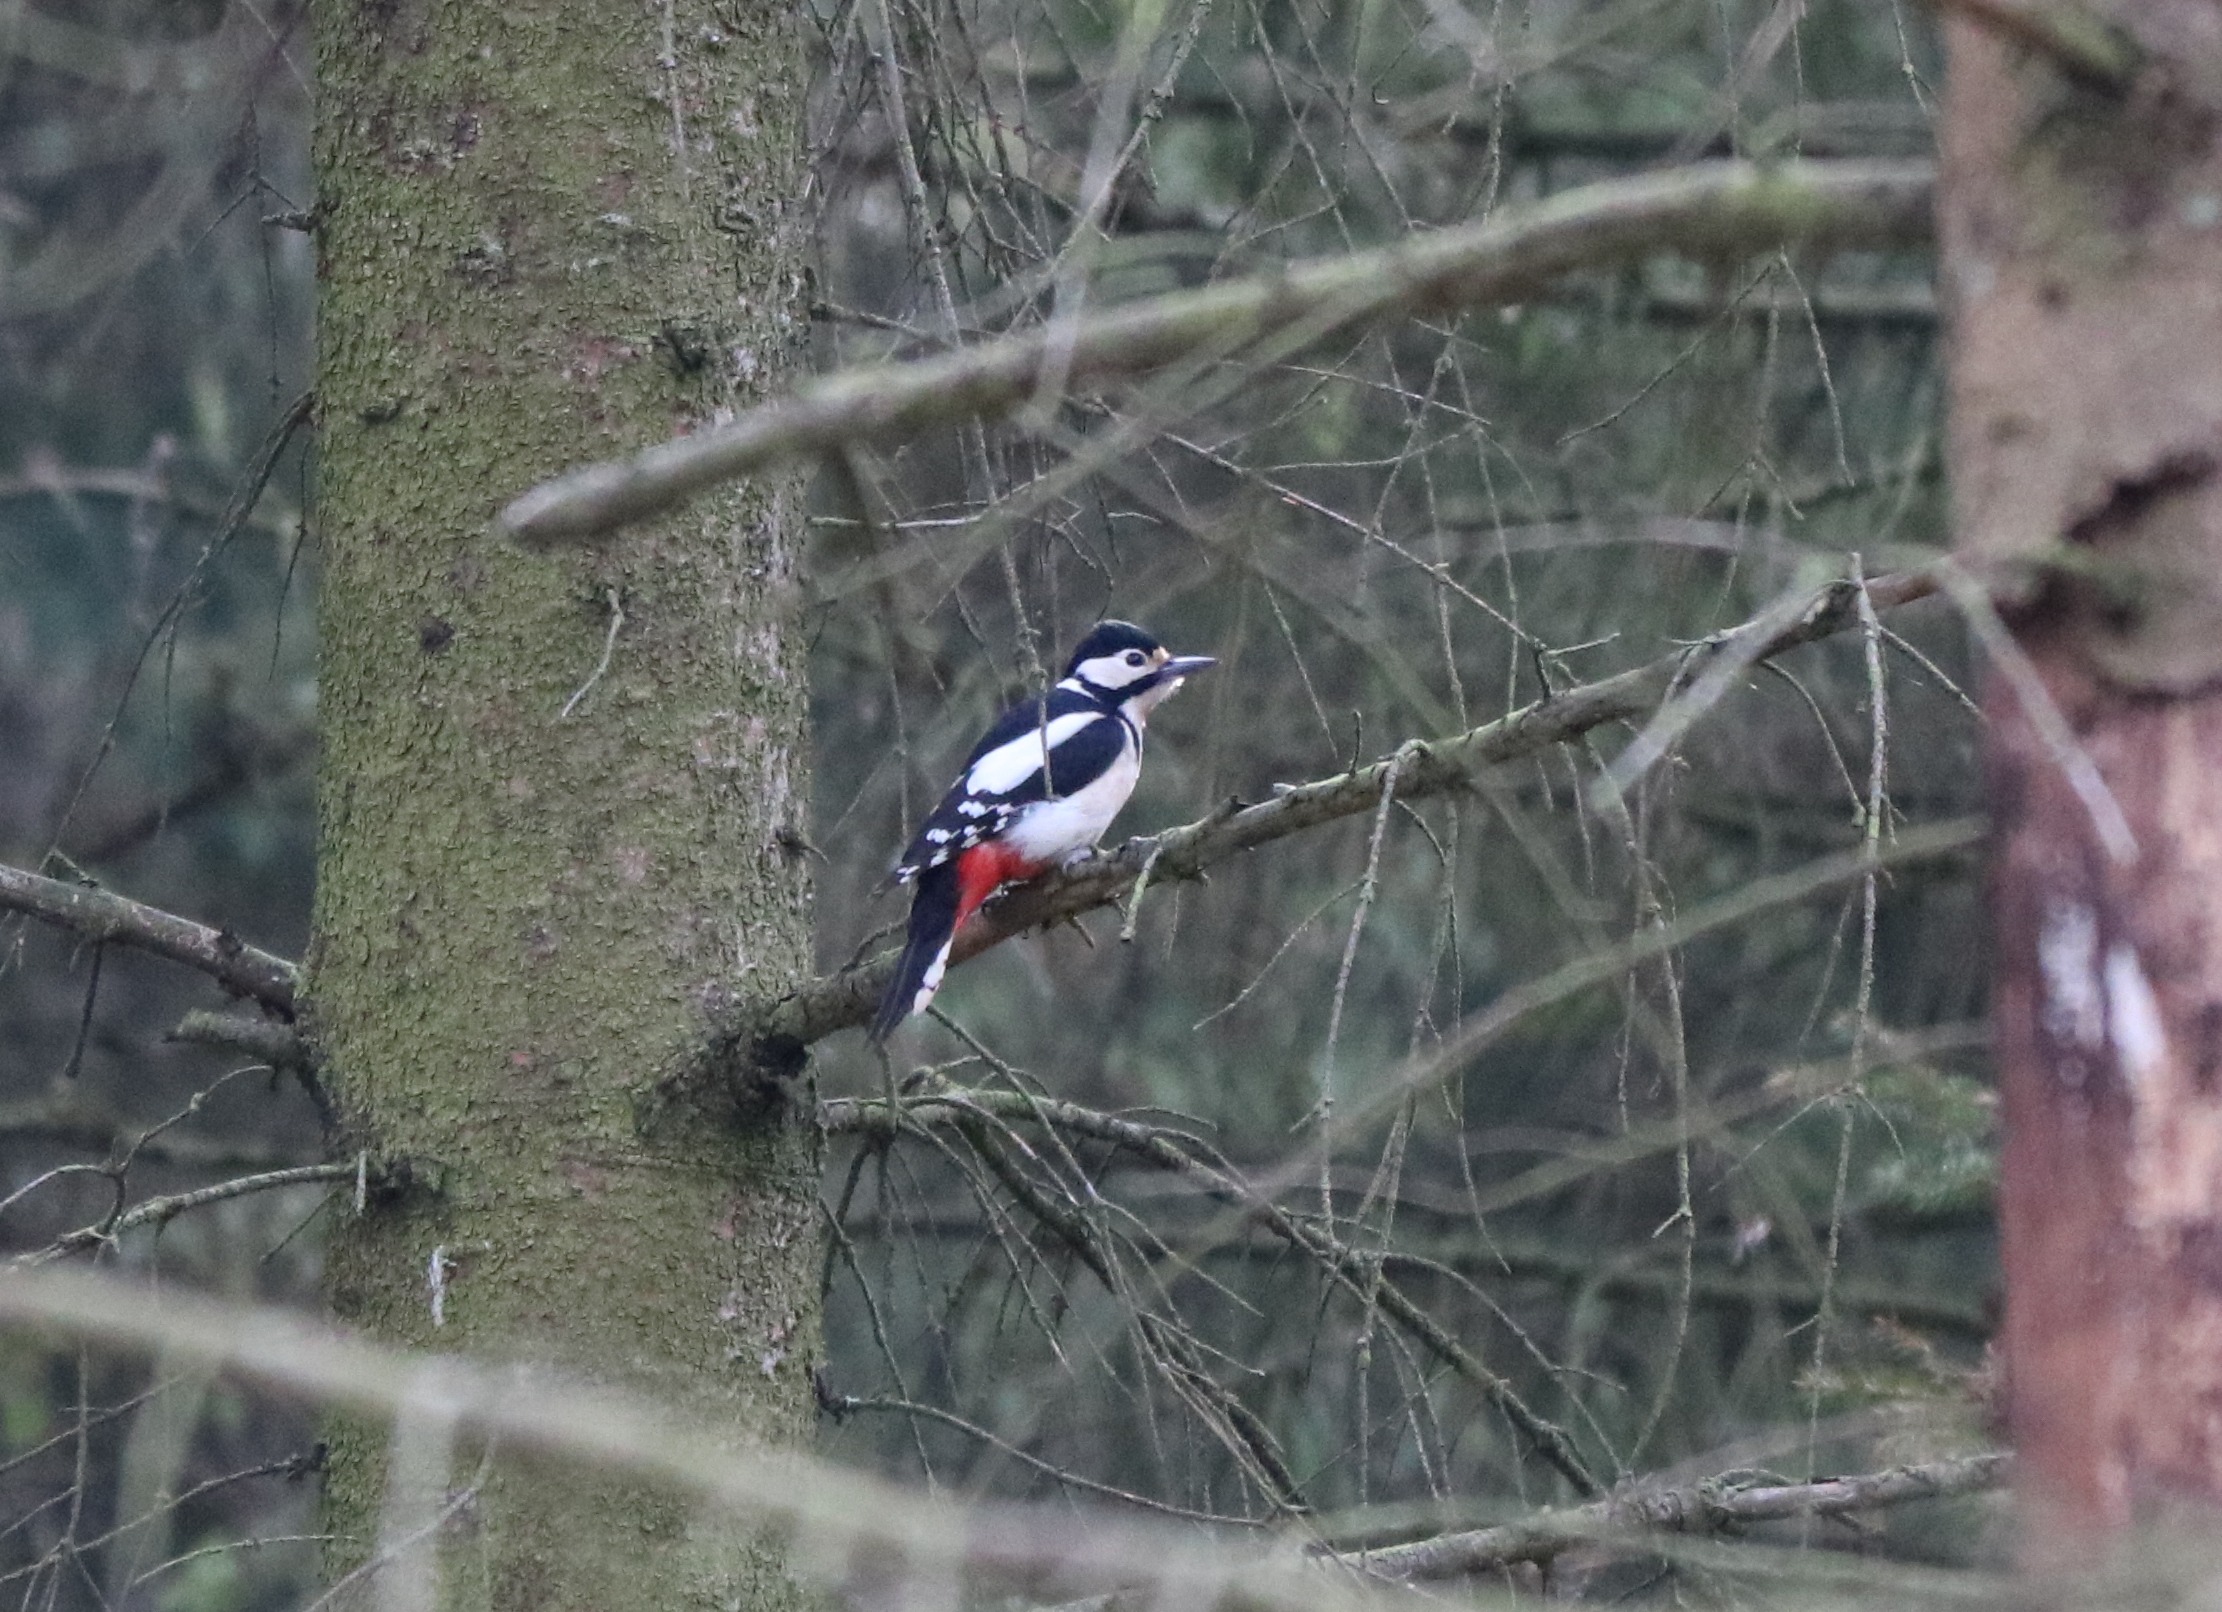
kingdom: Animalia
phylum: Chordata
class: Aves
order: Piciformes
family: Picidae
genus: Dendrocopos
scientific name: Dendrocopos major
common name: Stor flagspætte
